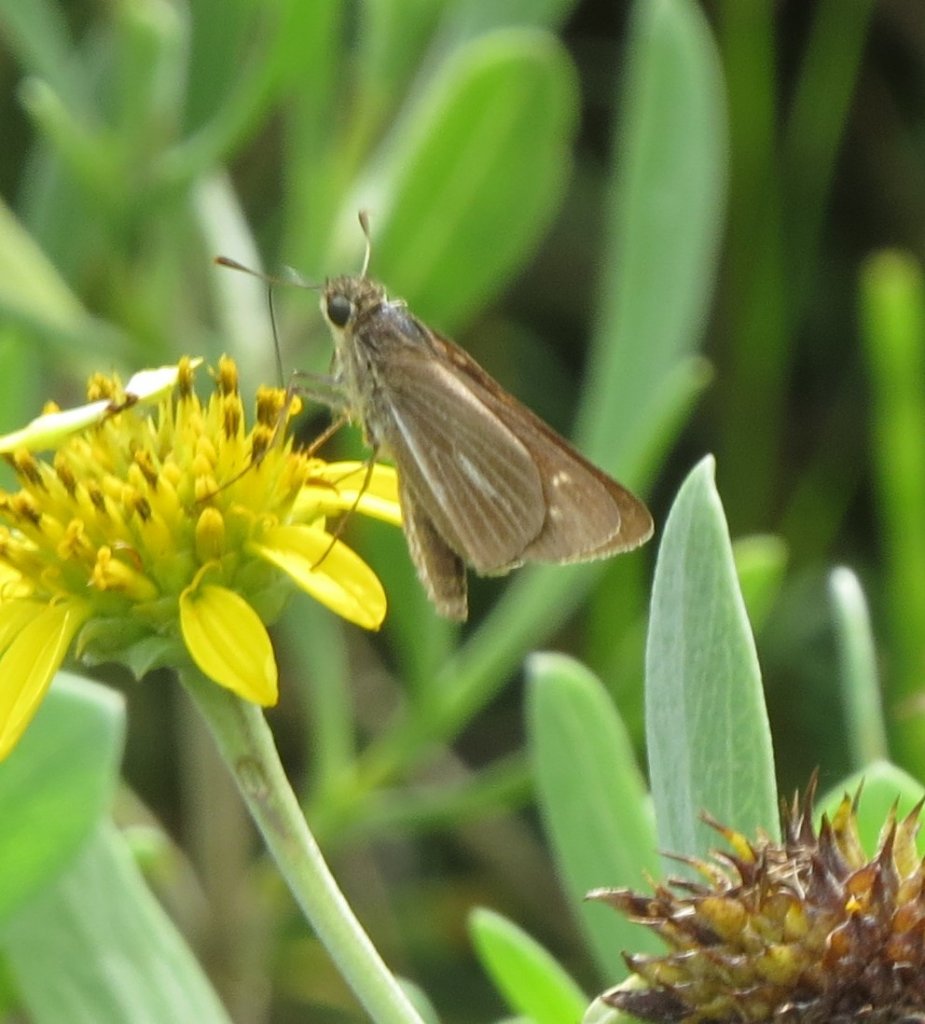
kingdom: Animalia
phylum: Arthropoda
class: Insecta
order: Lepidoptera
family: Hesperiidae
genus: Panoquina
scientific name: Panoquina panoquin
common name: Salt Marsh Skipper
